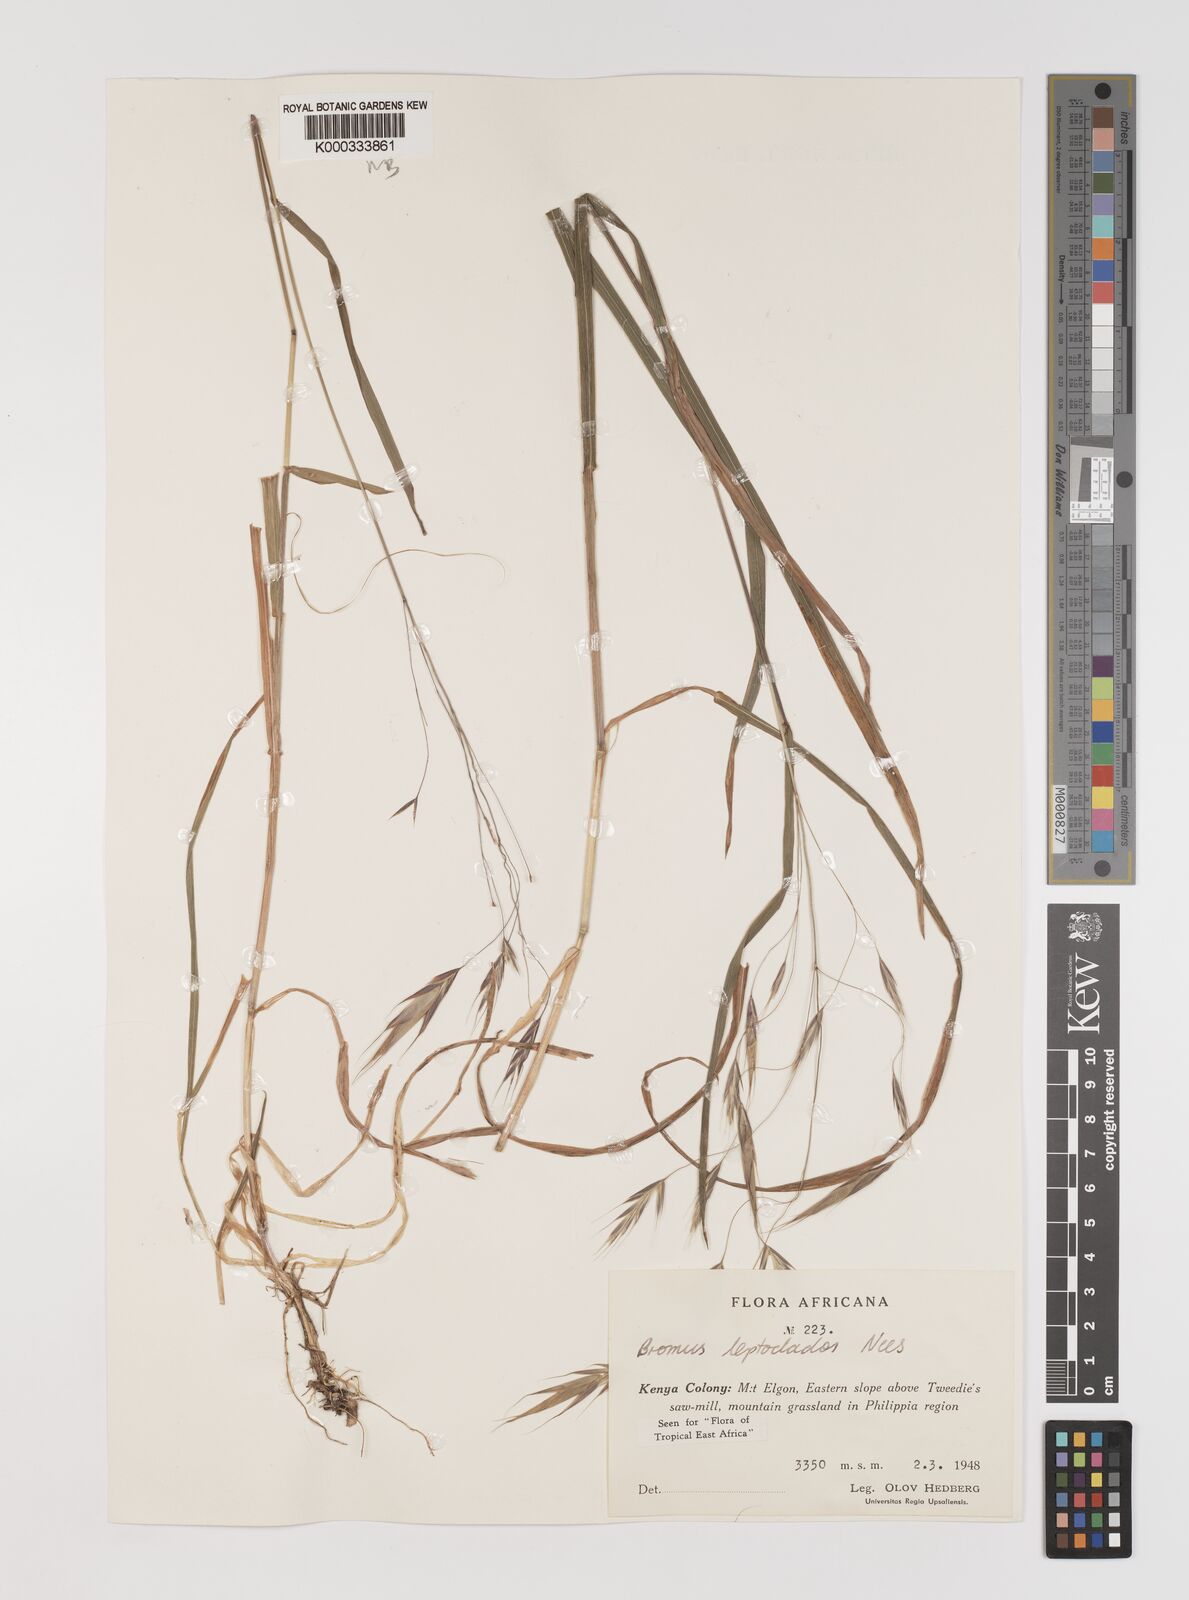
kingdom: Plantae
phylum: Tracheophyta
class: Liliopsida
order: Poales
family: Poaceae
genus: Bromus
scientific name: Bromus leptoclados
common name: Mountain bromegrass
